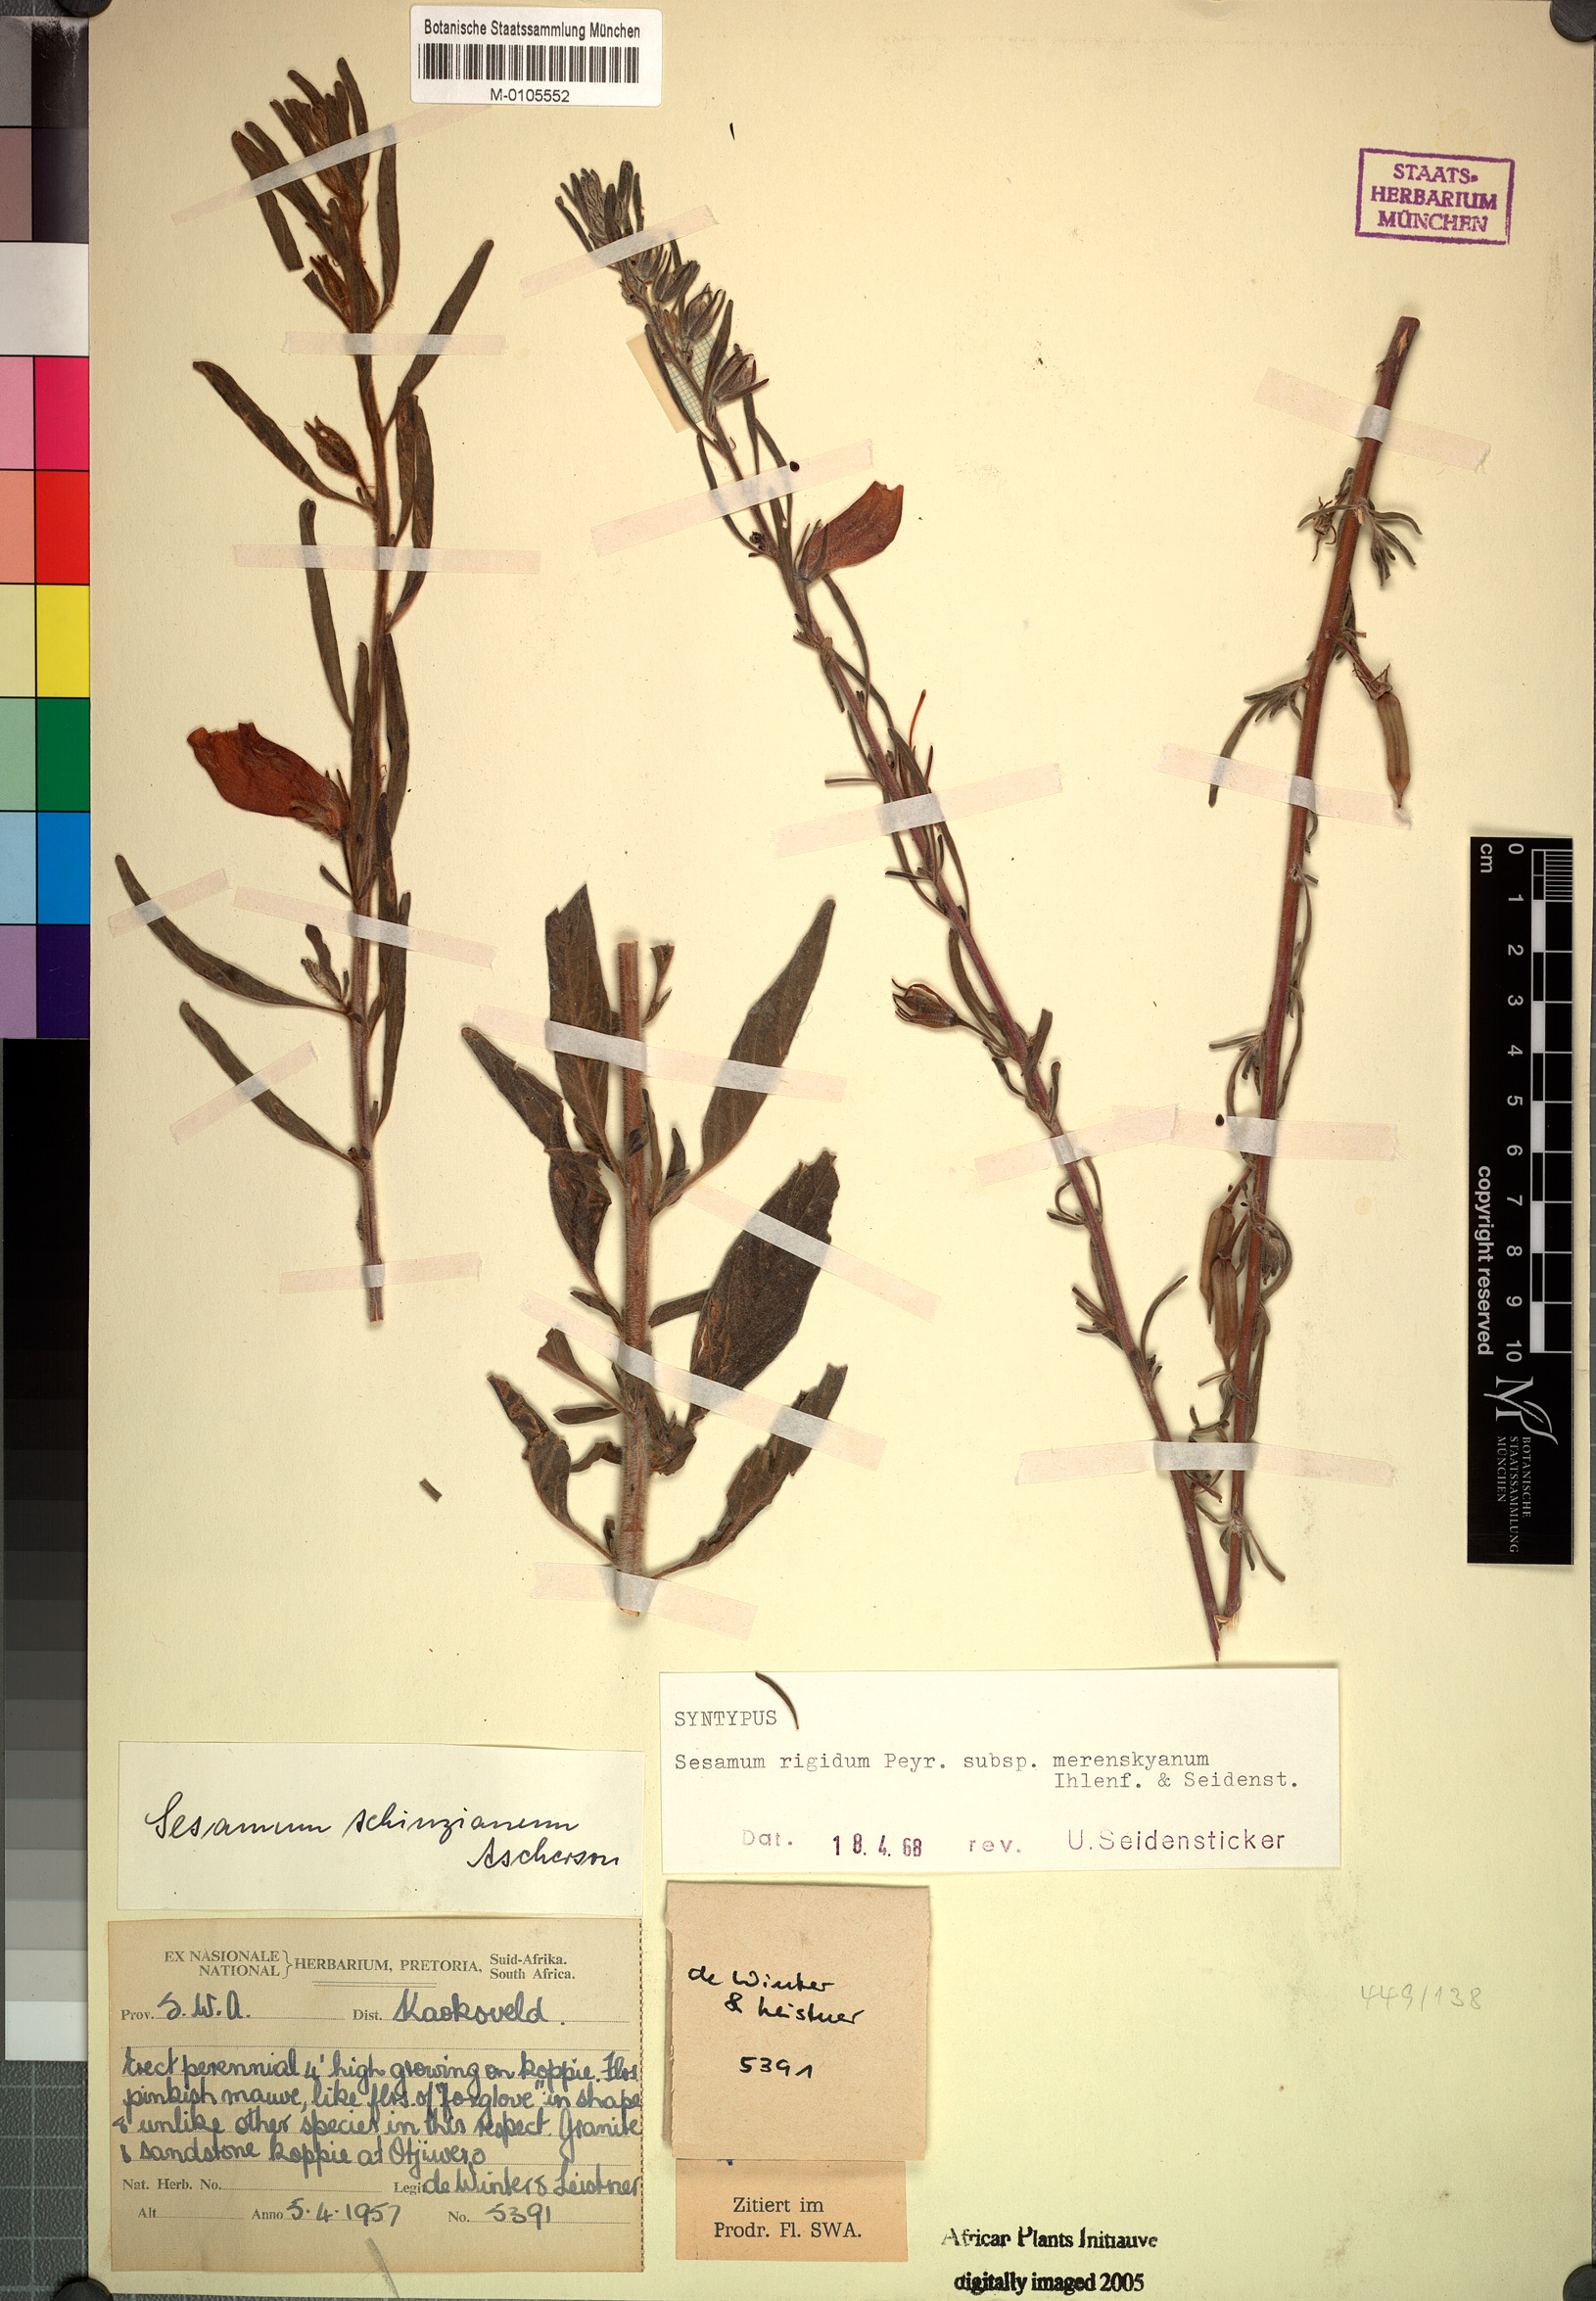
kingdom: Plantae
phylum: Tracheophyta
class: Magnoliopsida
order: Lamiales
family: Pedaliaceae
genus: Sesamum
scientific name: Sesamum rigidum
